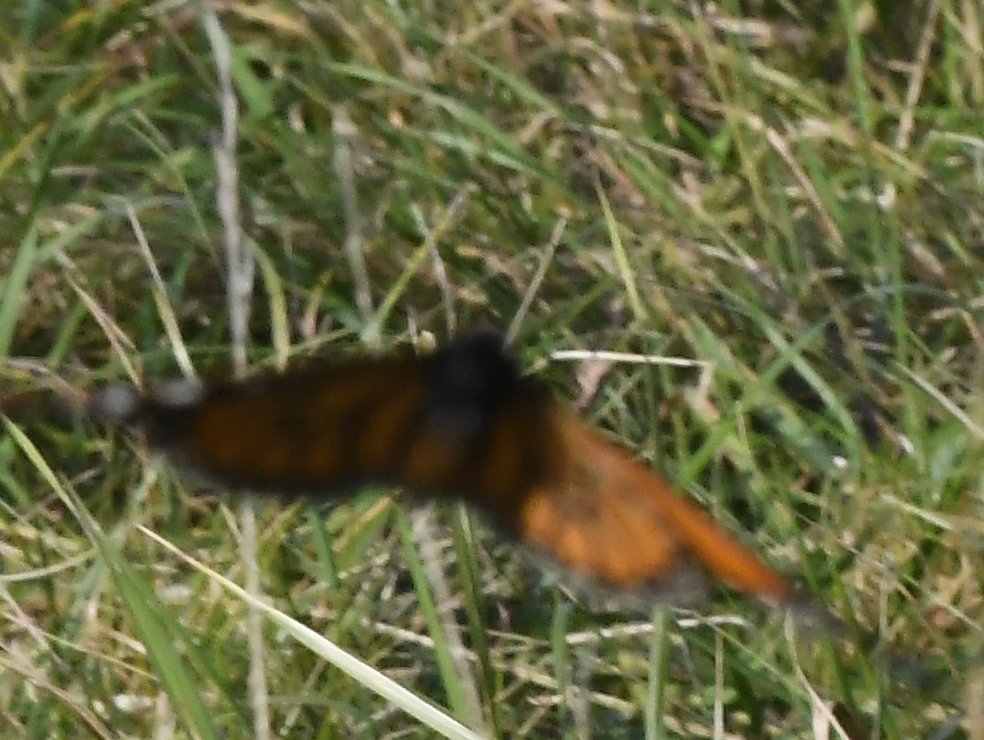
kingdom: Animalia
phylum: Arthropoda
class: Insecta
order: Lepidoptera
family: Nymphalidae
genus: Danaus
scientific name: Danaus plexippus
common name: Monarch
